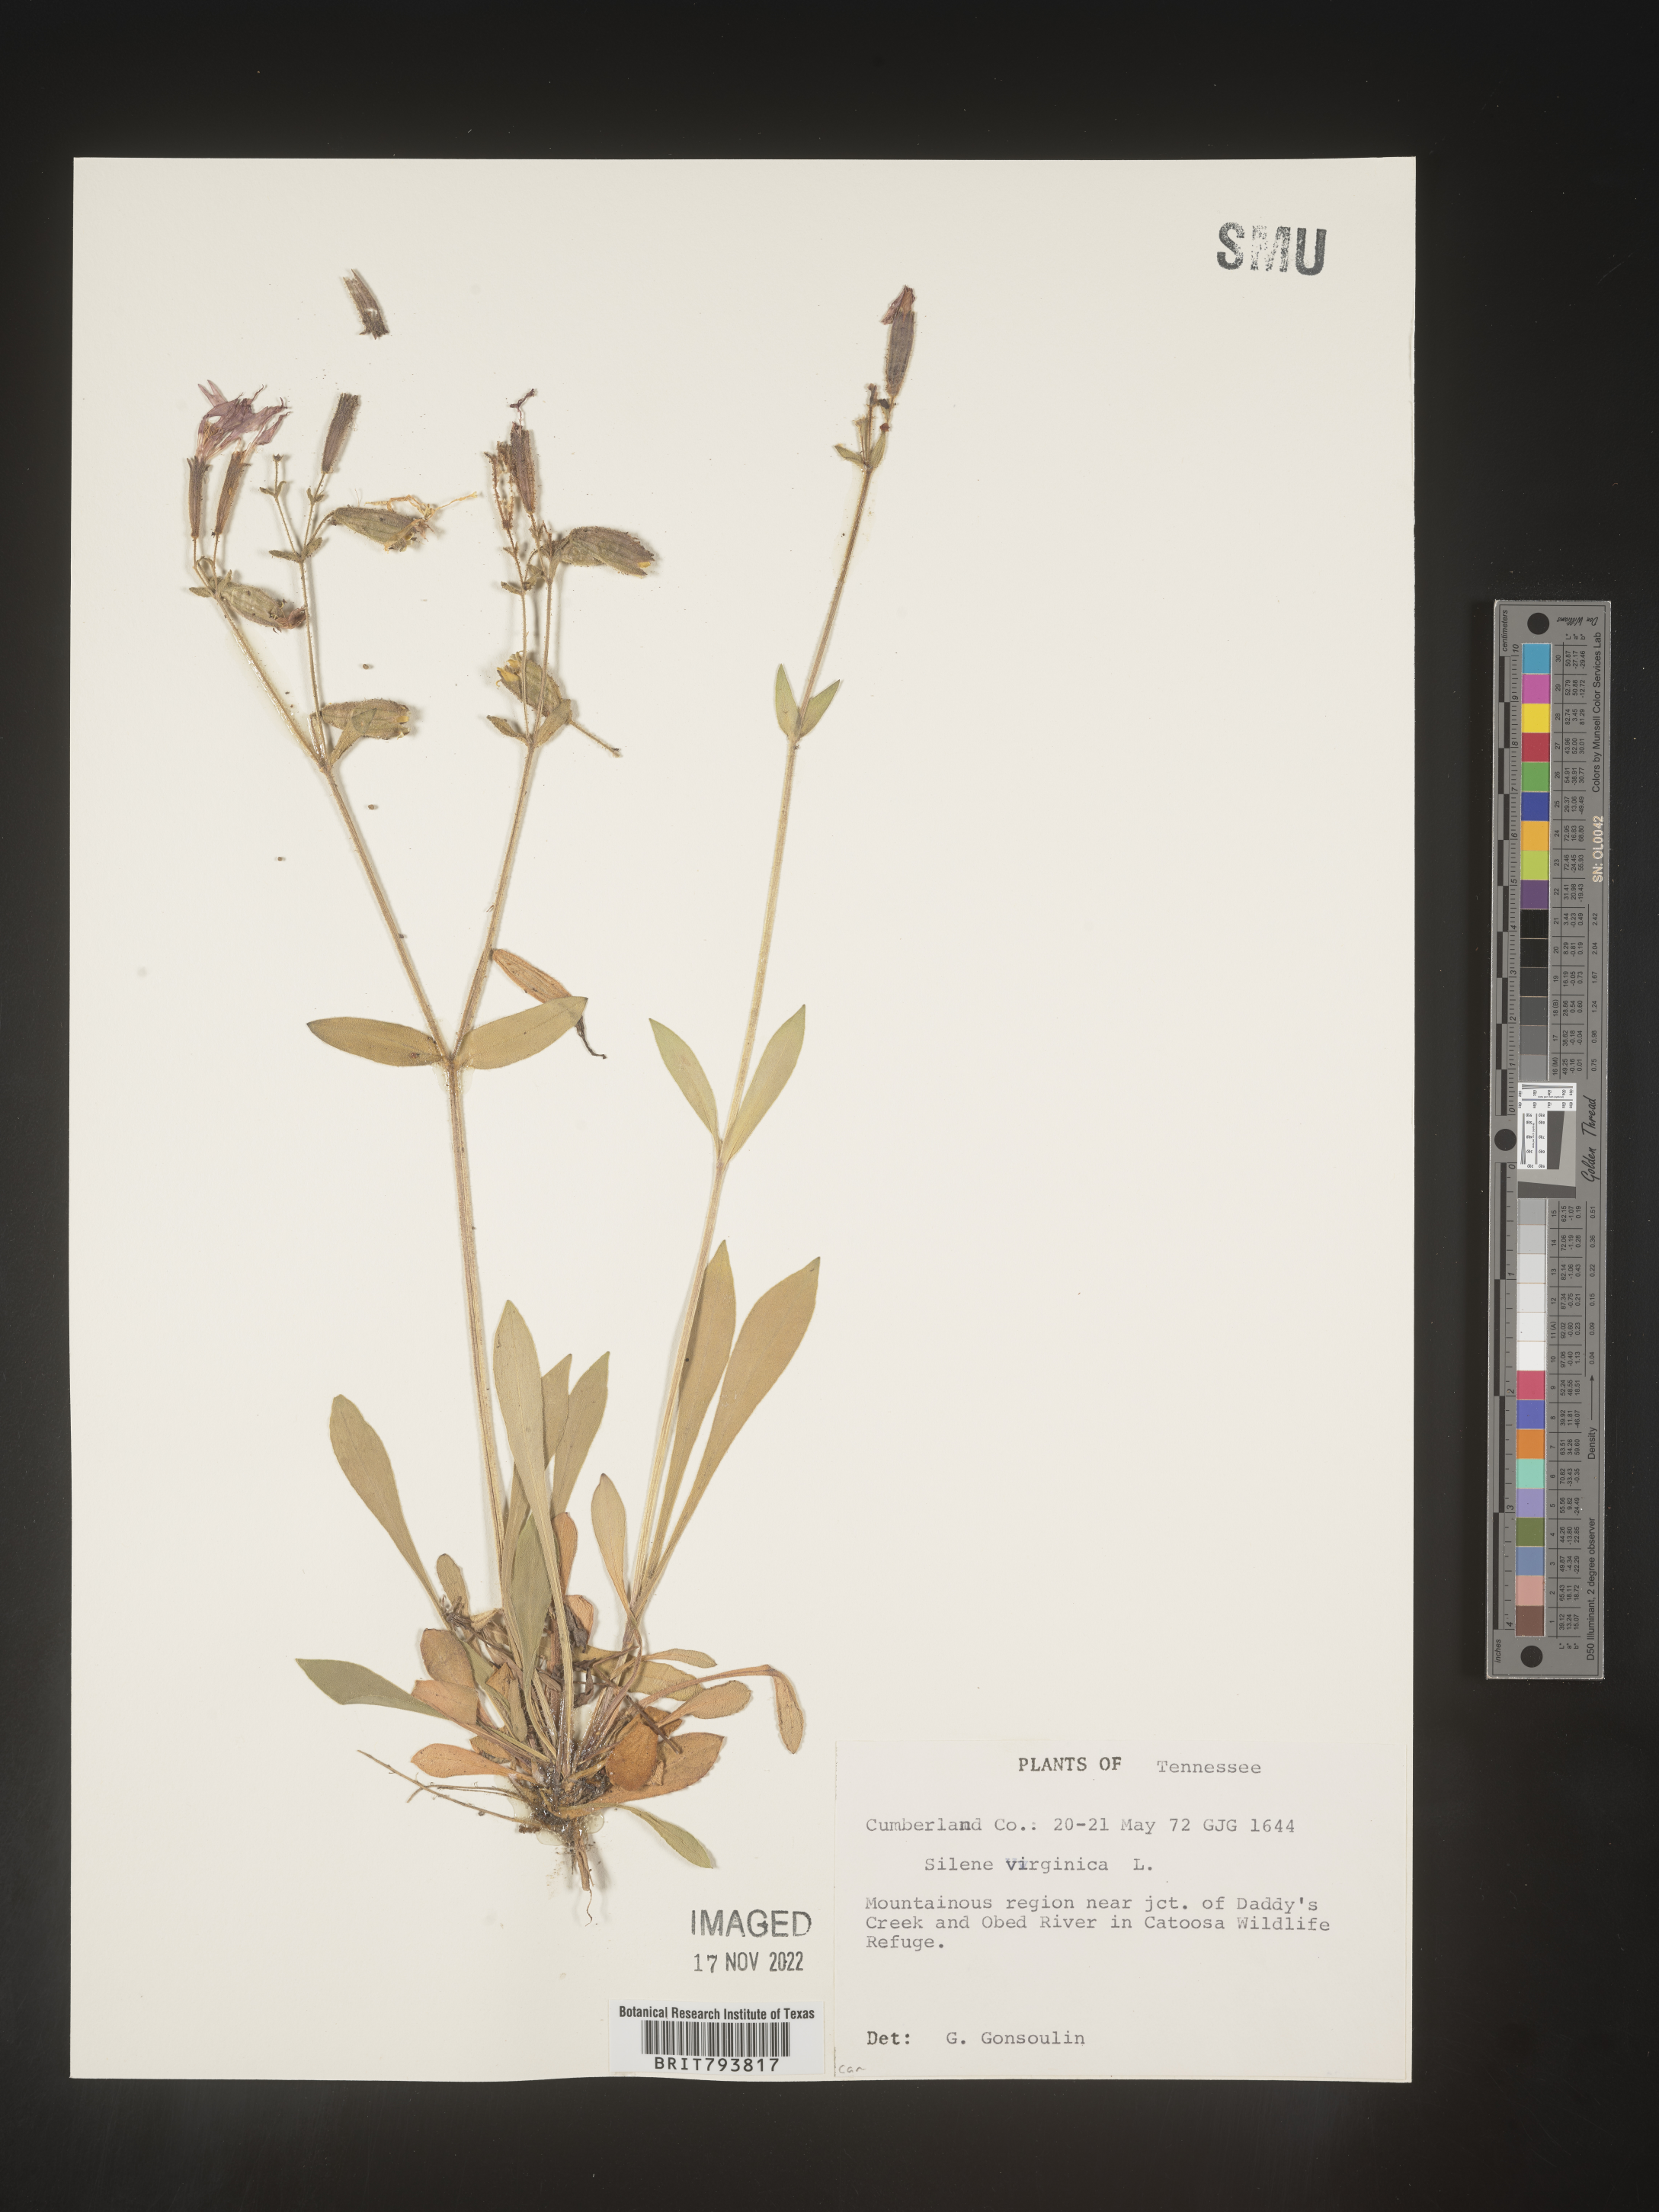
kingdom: Plantae
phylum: Tracheophyta
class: Magnoliopsida
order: Caryophyllales
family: Caryophyllaceae
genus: Silene
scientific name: Silene virginica
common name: Fire-pink
